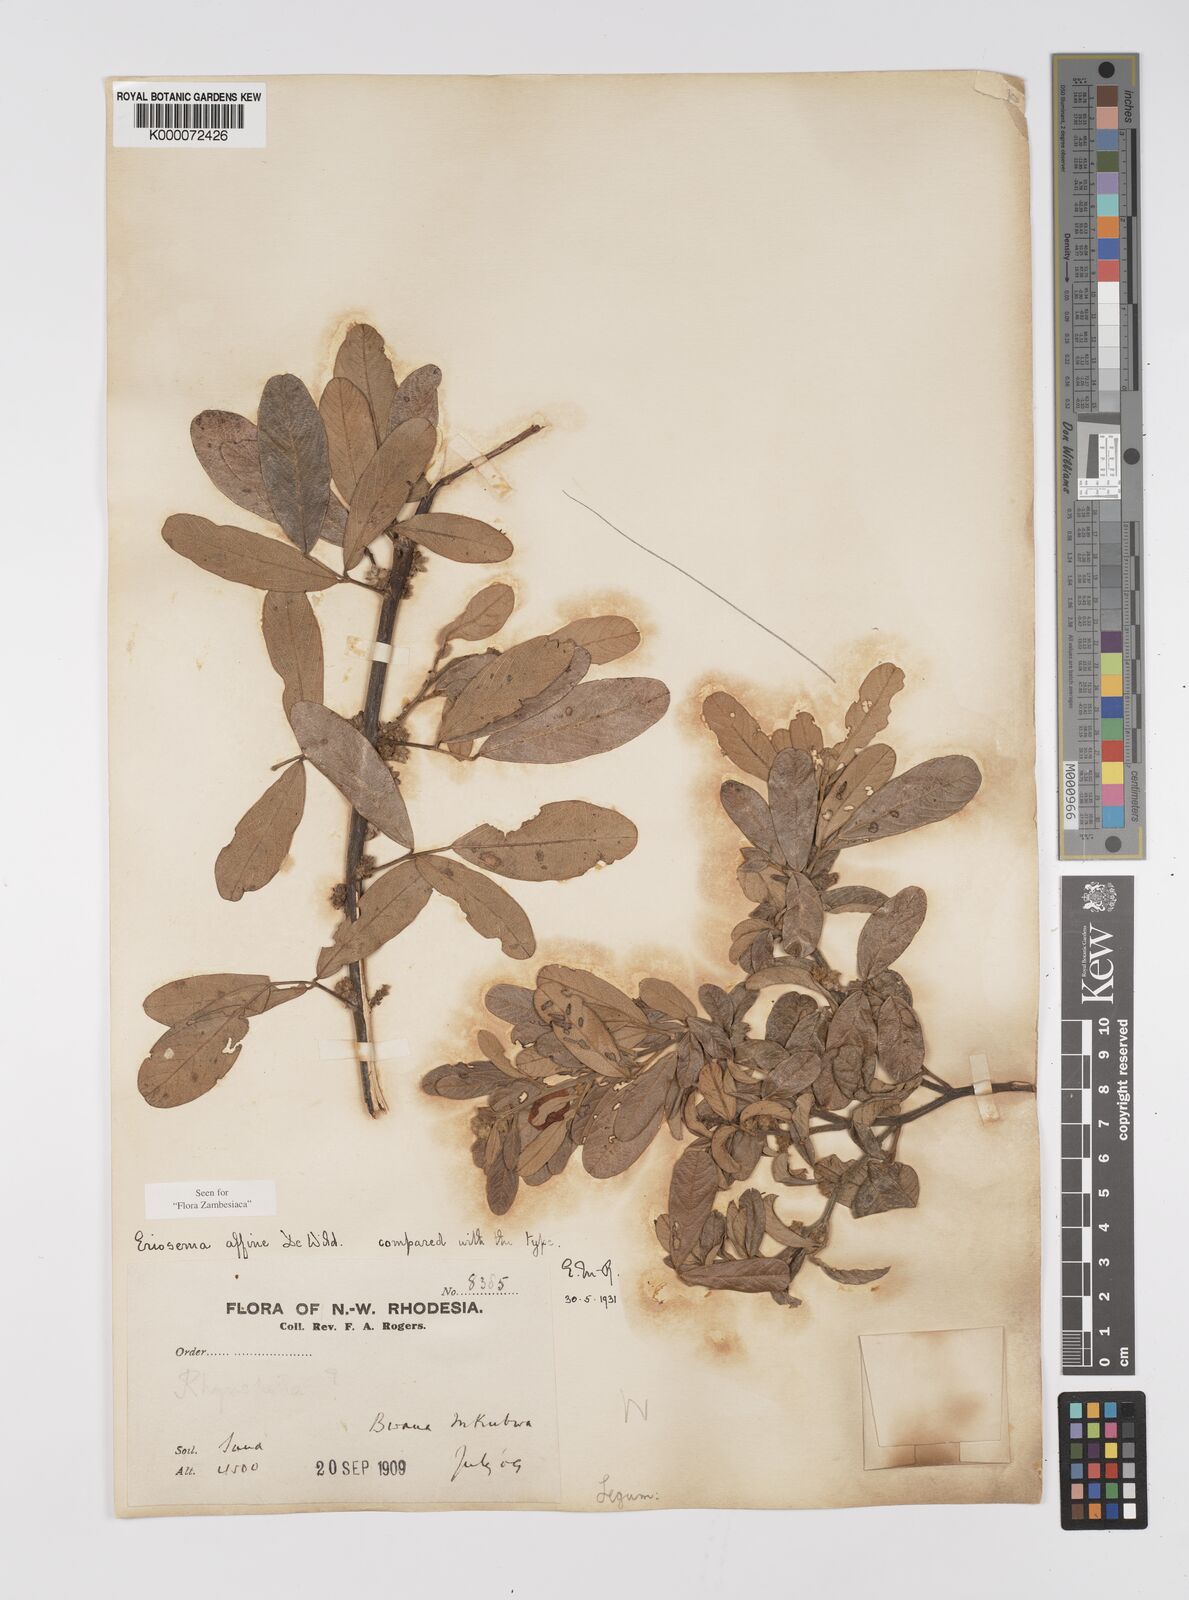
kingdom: Plantae
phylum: Tracheophyta
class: Magnoliopsida
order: Fabales
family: Fabaceae
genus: Eriosema
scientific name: Eriosema affine
